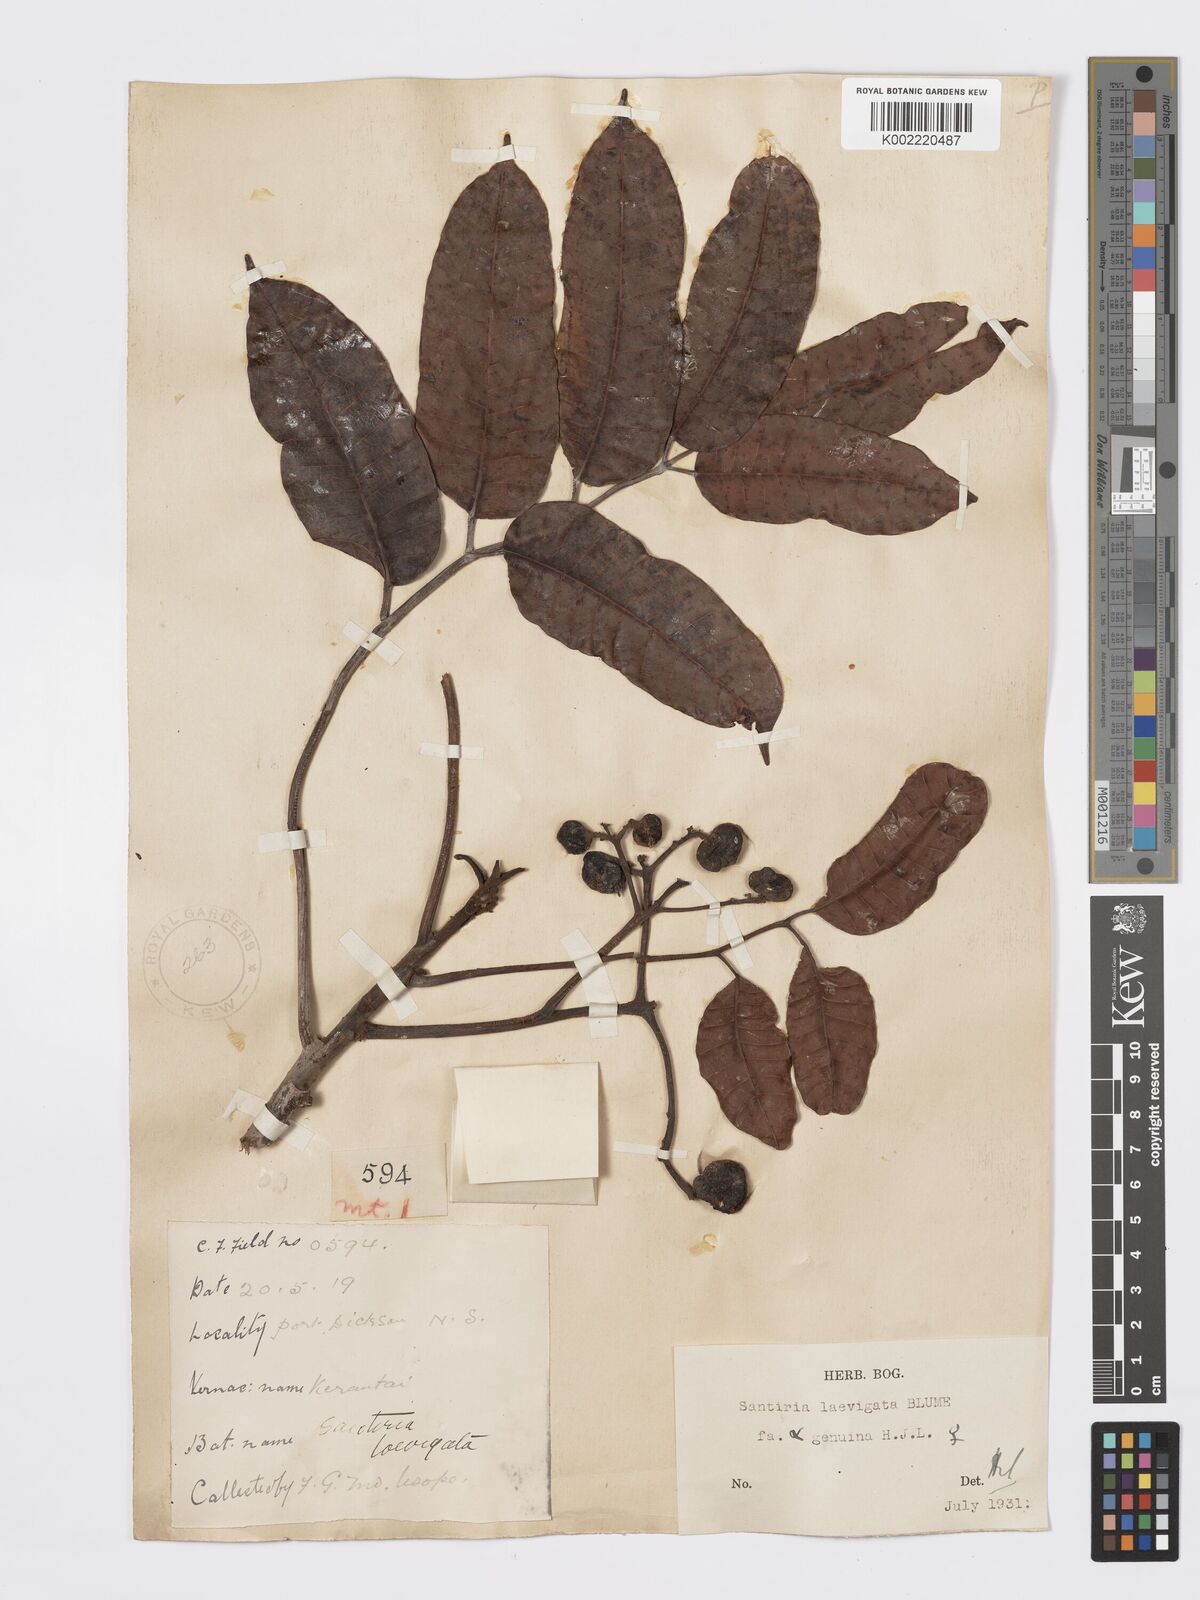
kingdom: Plantae
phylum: Tracheophyta
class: Magnoliopsida
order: Sapindales
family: Burseraceae
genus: Santiria
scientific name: Santiria laevigata
